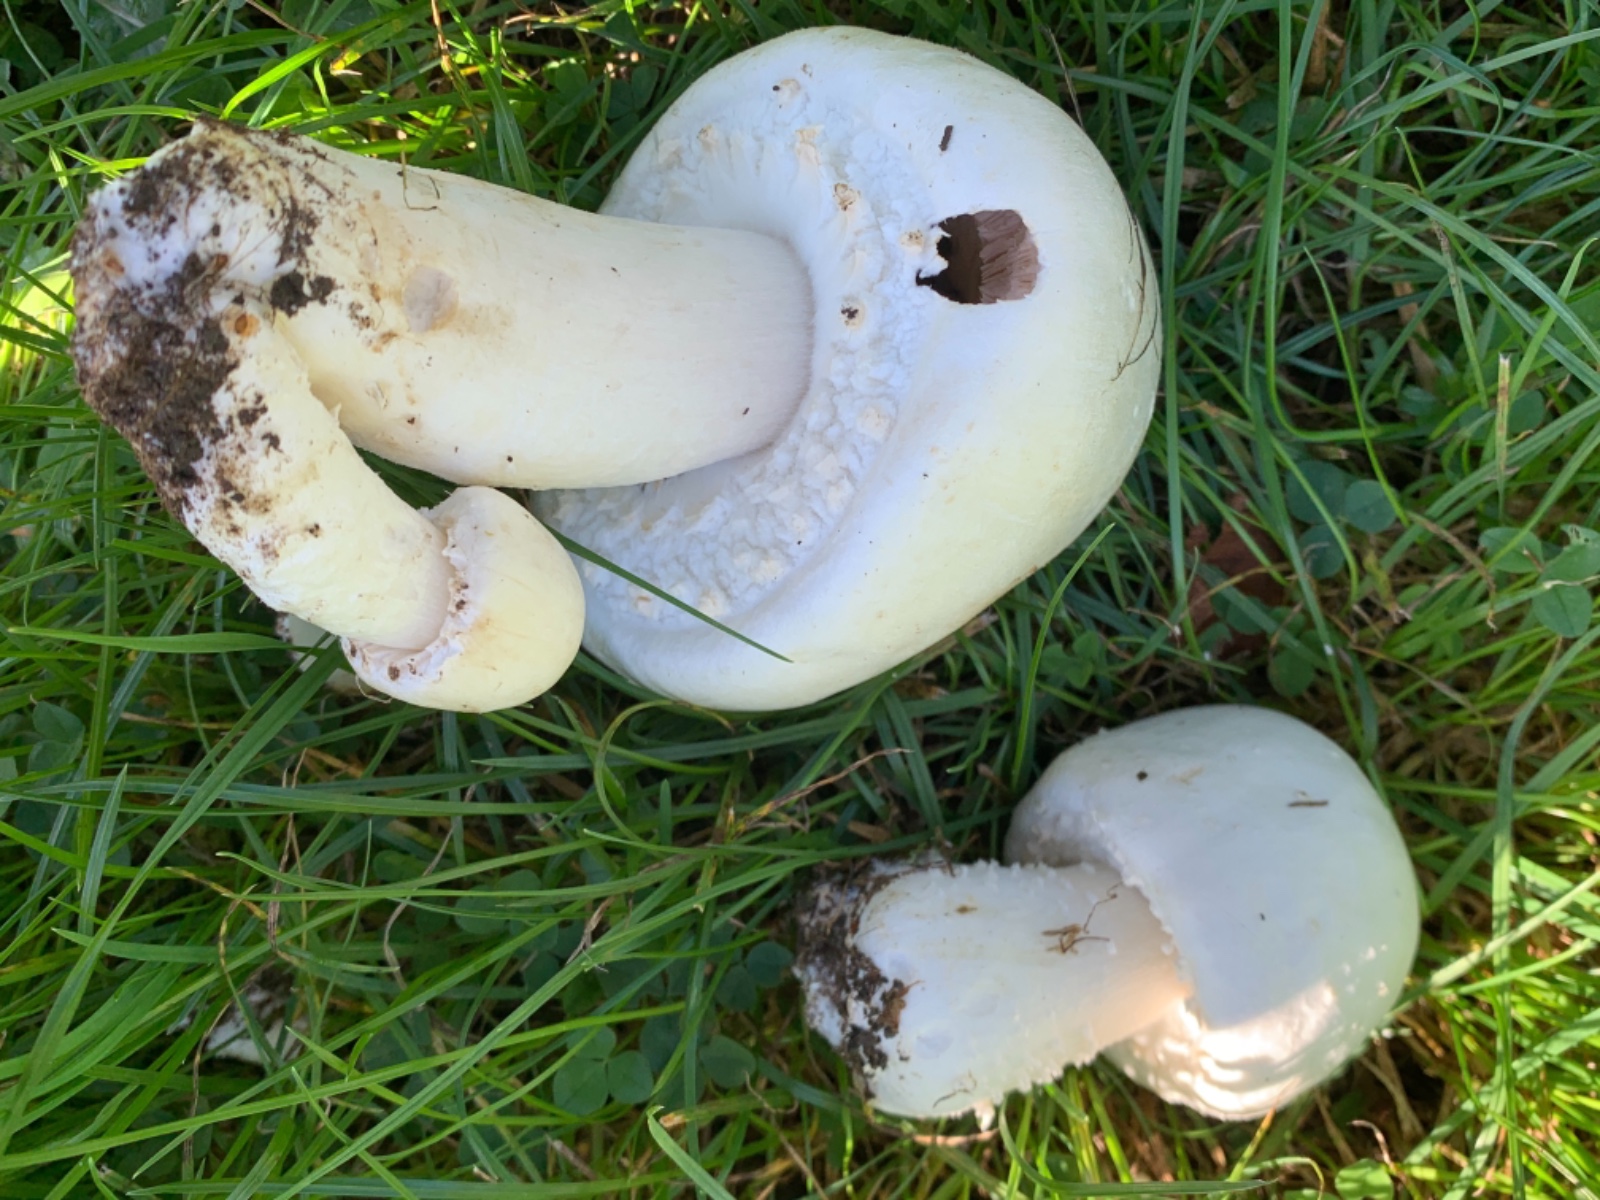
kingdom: Fungi
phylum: Basidiomycota
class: Agaricomycetes
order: Agaricales
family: Agaricaceae
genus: Agaricus
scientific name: Agaricus arvensis
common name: ager-champignon
